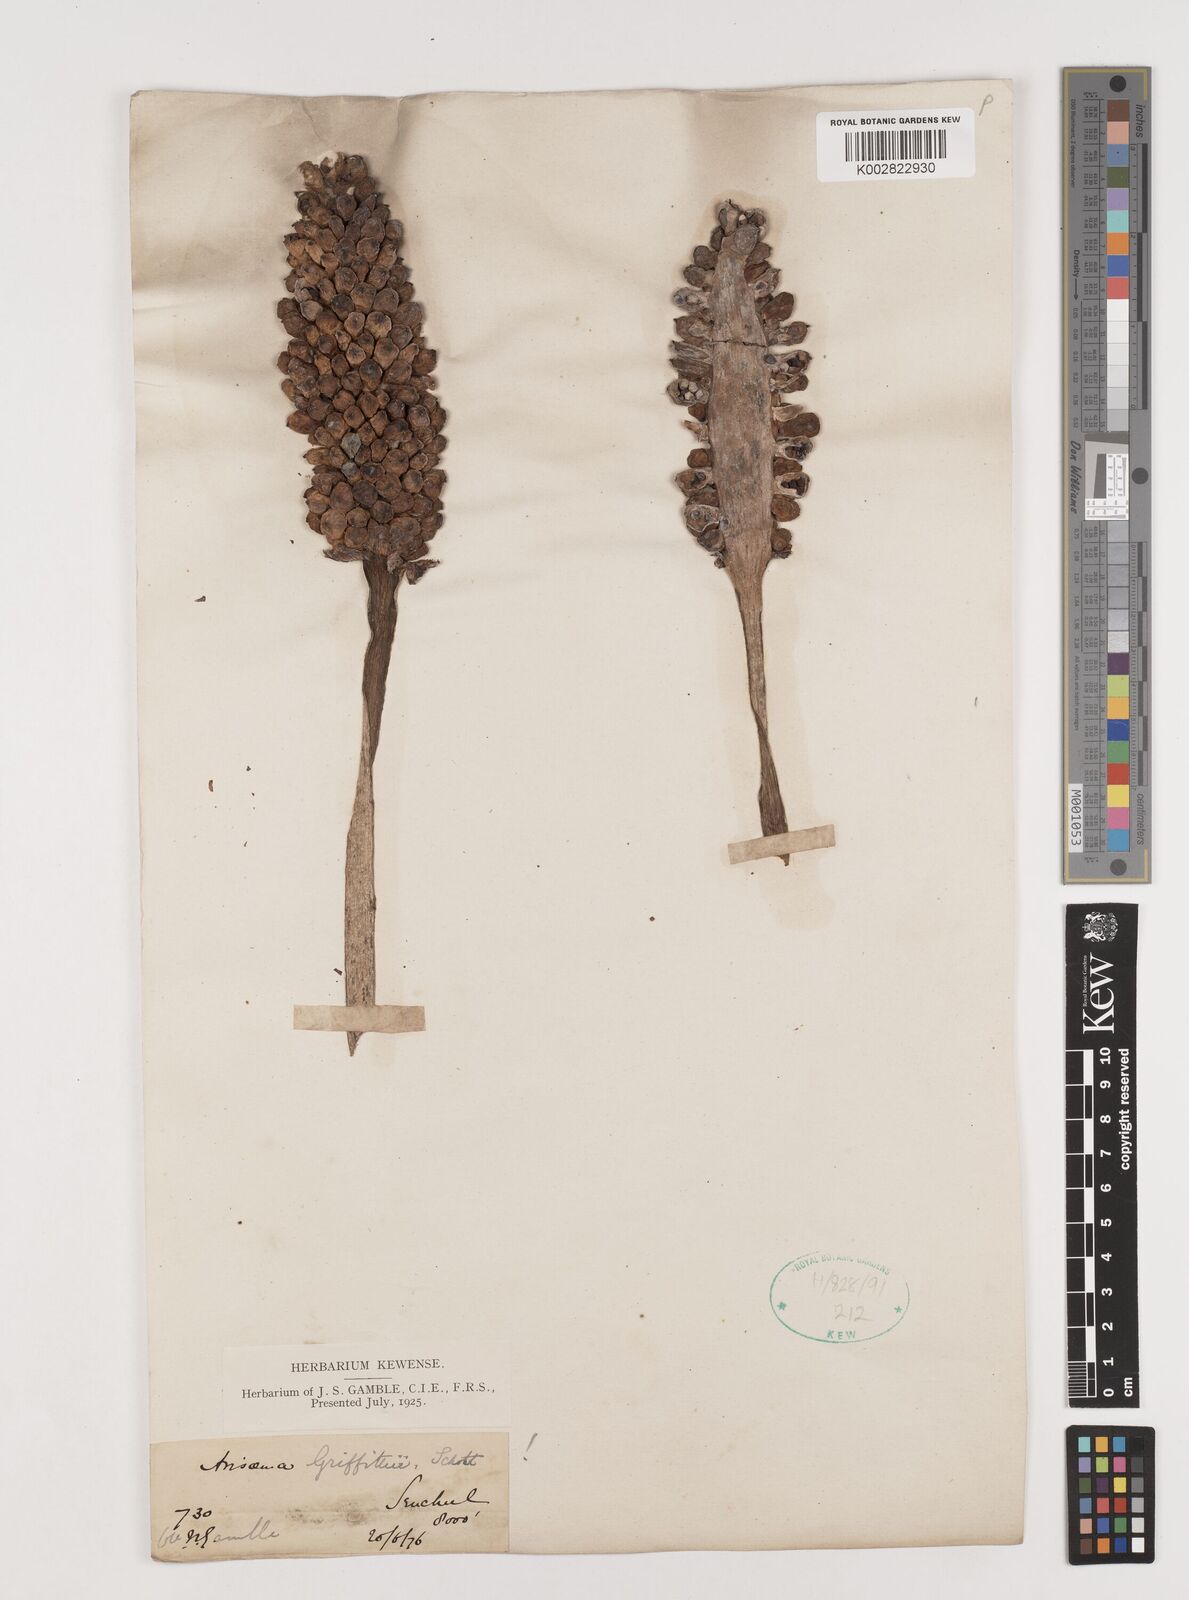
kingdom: Plantae
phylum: Tracheophyta
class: Liliopsida
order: Alismatales
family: Araceae
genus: Arisaema
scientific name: Arisaema griffithii
